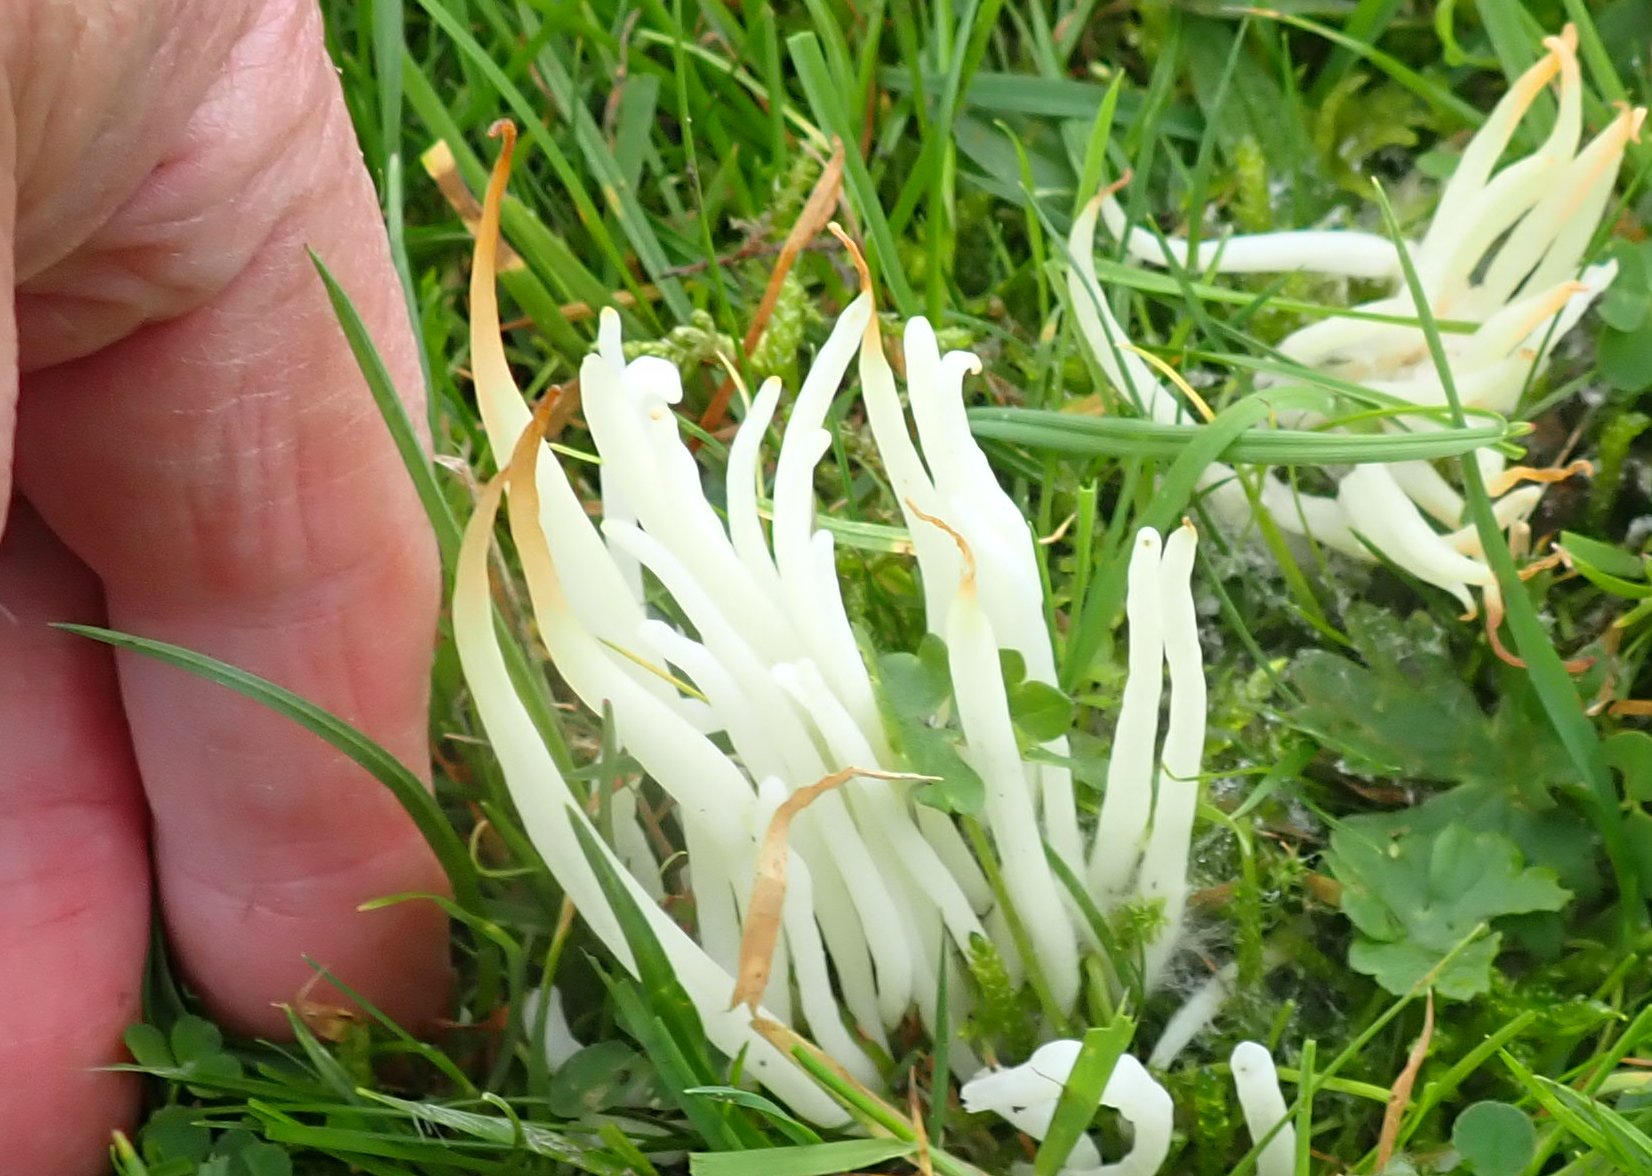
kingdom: Fungi
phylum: Basidiomycota
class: Agaricomycetes
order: Agaricales
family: Clavariaceae
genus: Clavaria
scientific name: Clavaria fragilis
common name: bugtet køllesvamp
